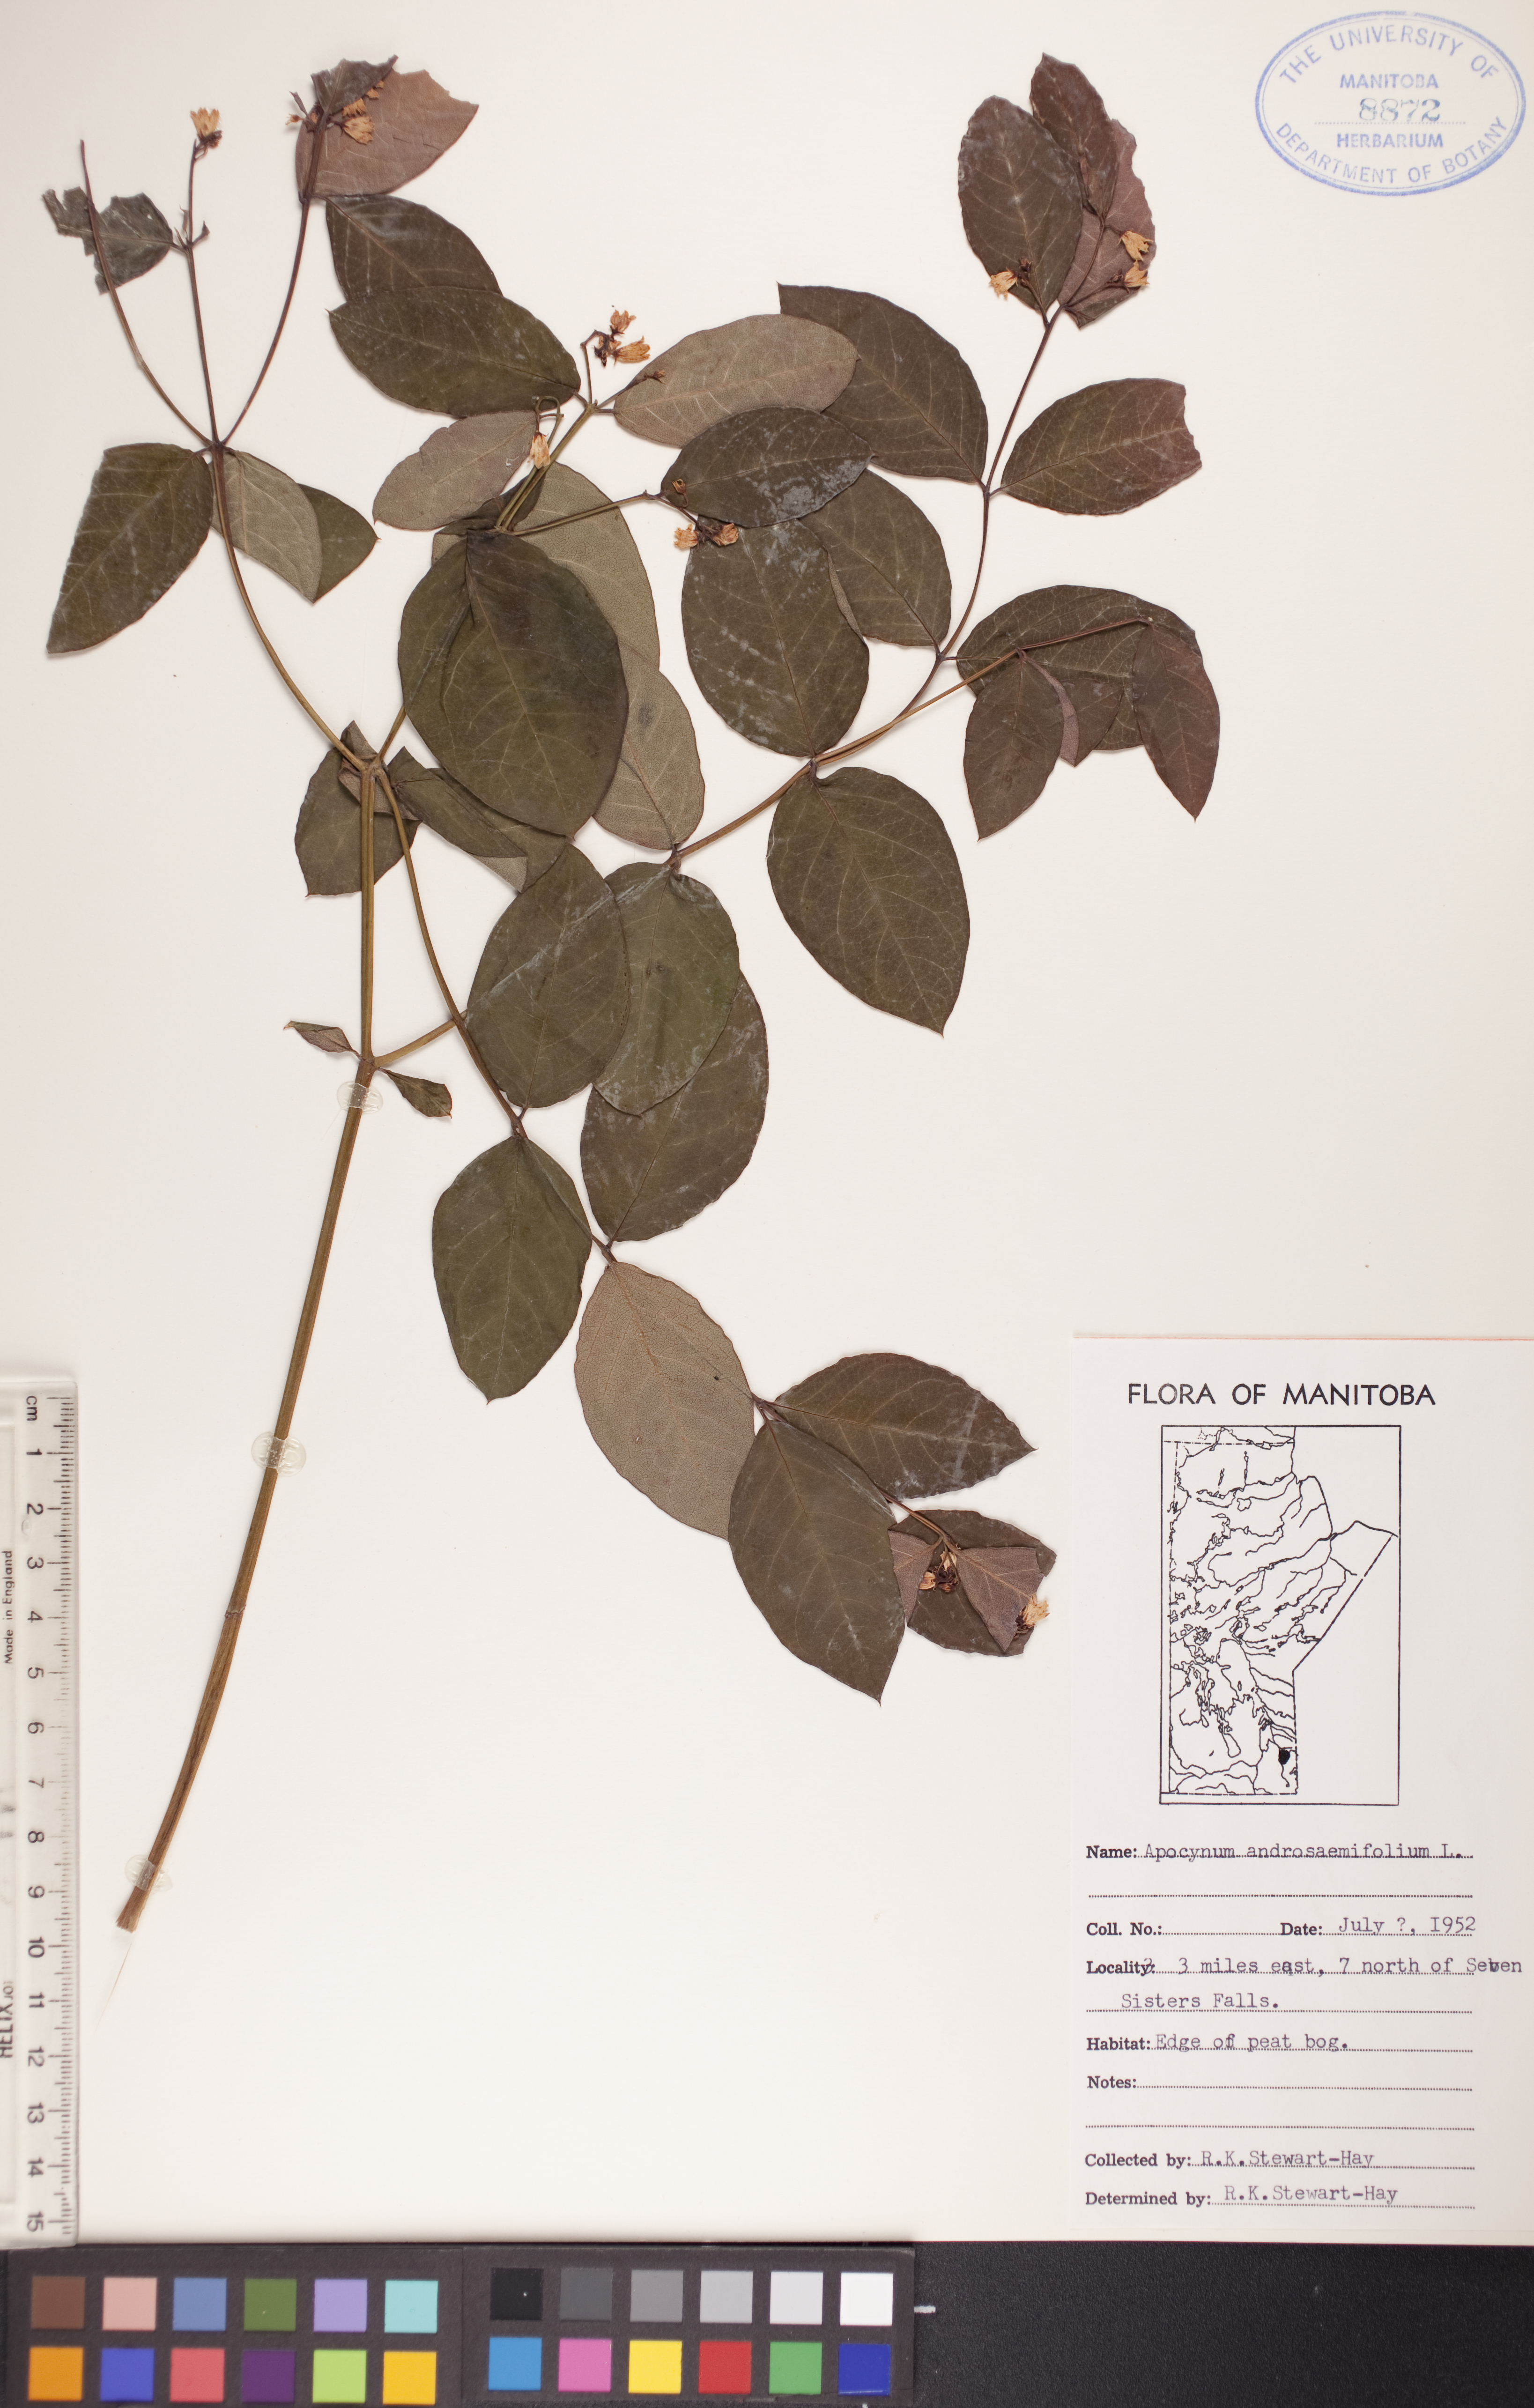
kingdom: Plantae
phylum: Tracheophyta
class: Magnoliopsida
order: Gentianales
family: Apocynaceae
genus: Apocynum
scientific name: Apocynum androsaemifolium
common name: Spreading dogbane
